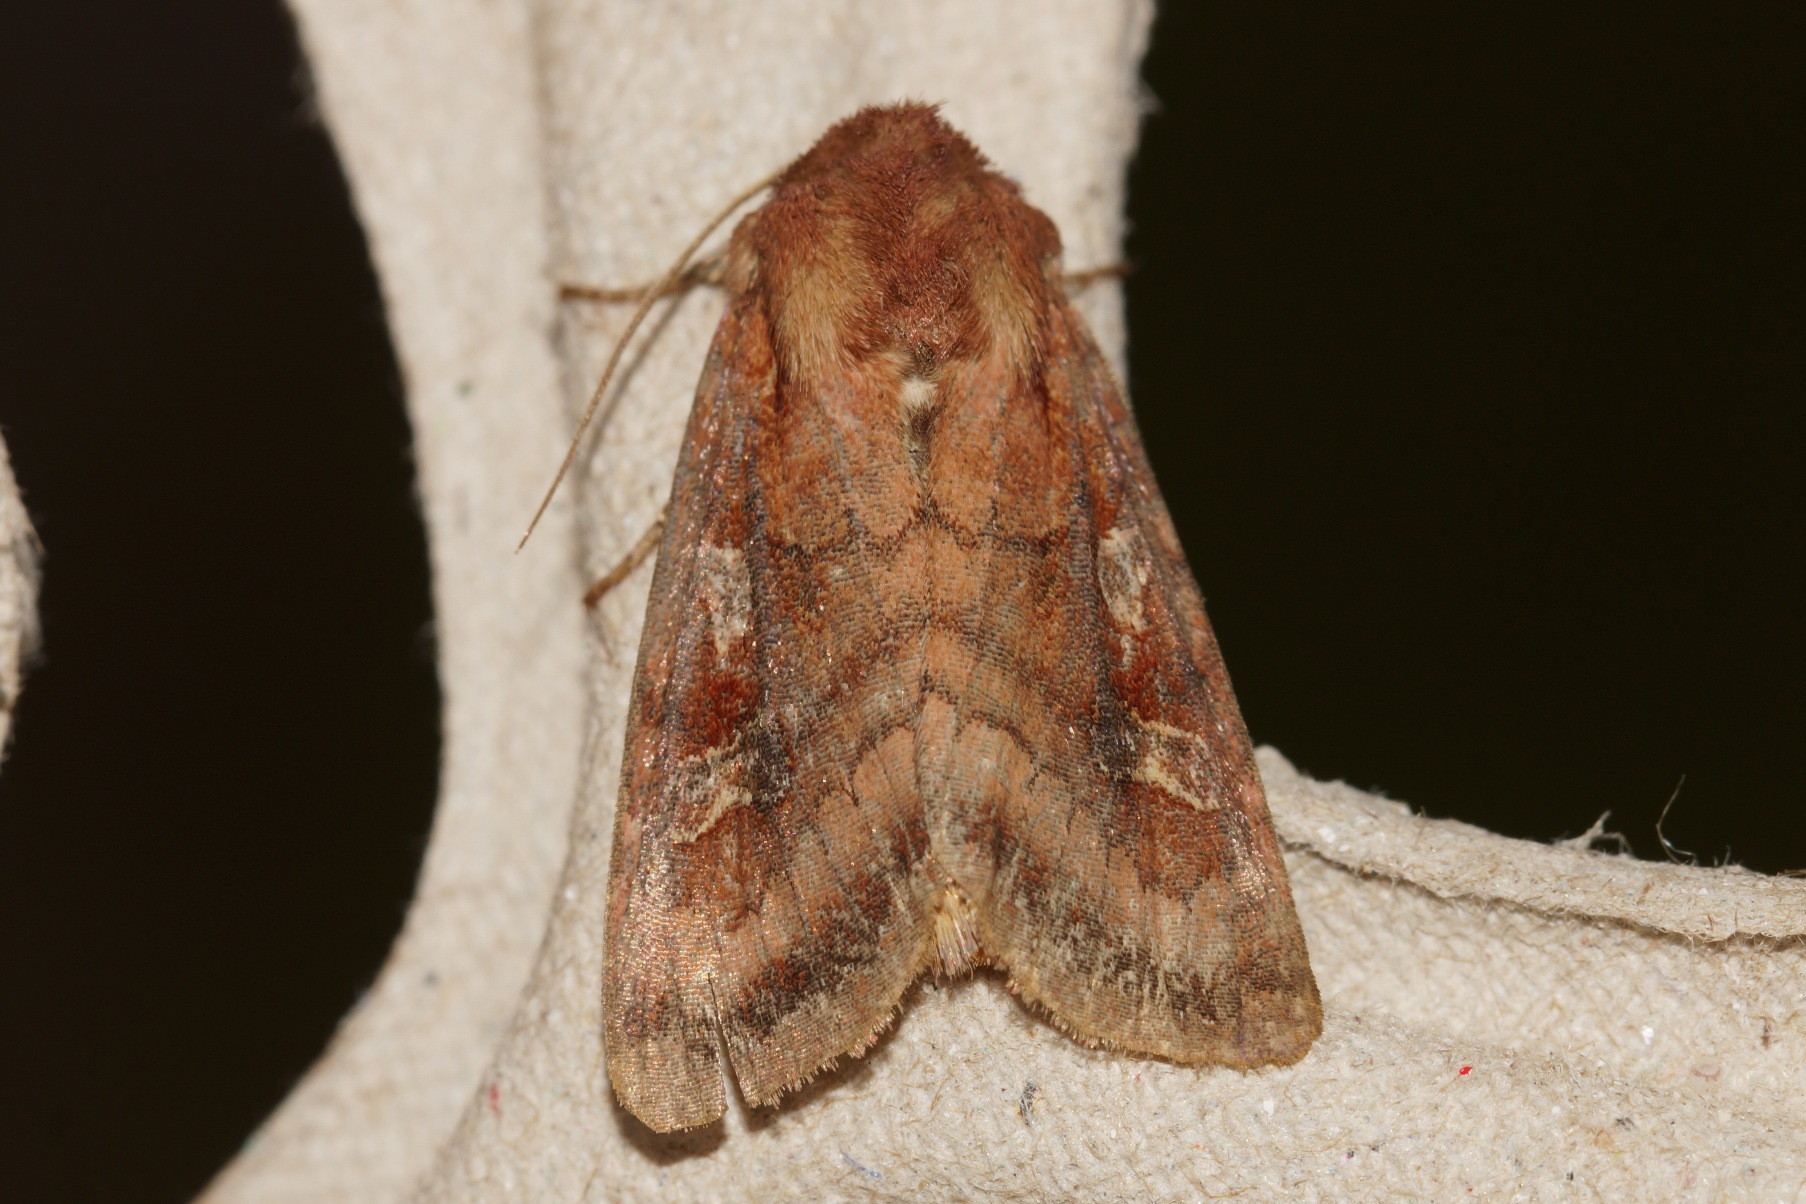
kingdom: Animalia
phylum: Arthropoda
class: Insecta
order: Lepidoptera
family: Noctuidae
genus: Lacanobia
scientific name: Lacanobia splendens
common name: Pragt grønsagsugle
